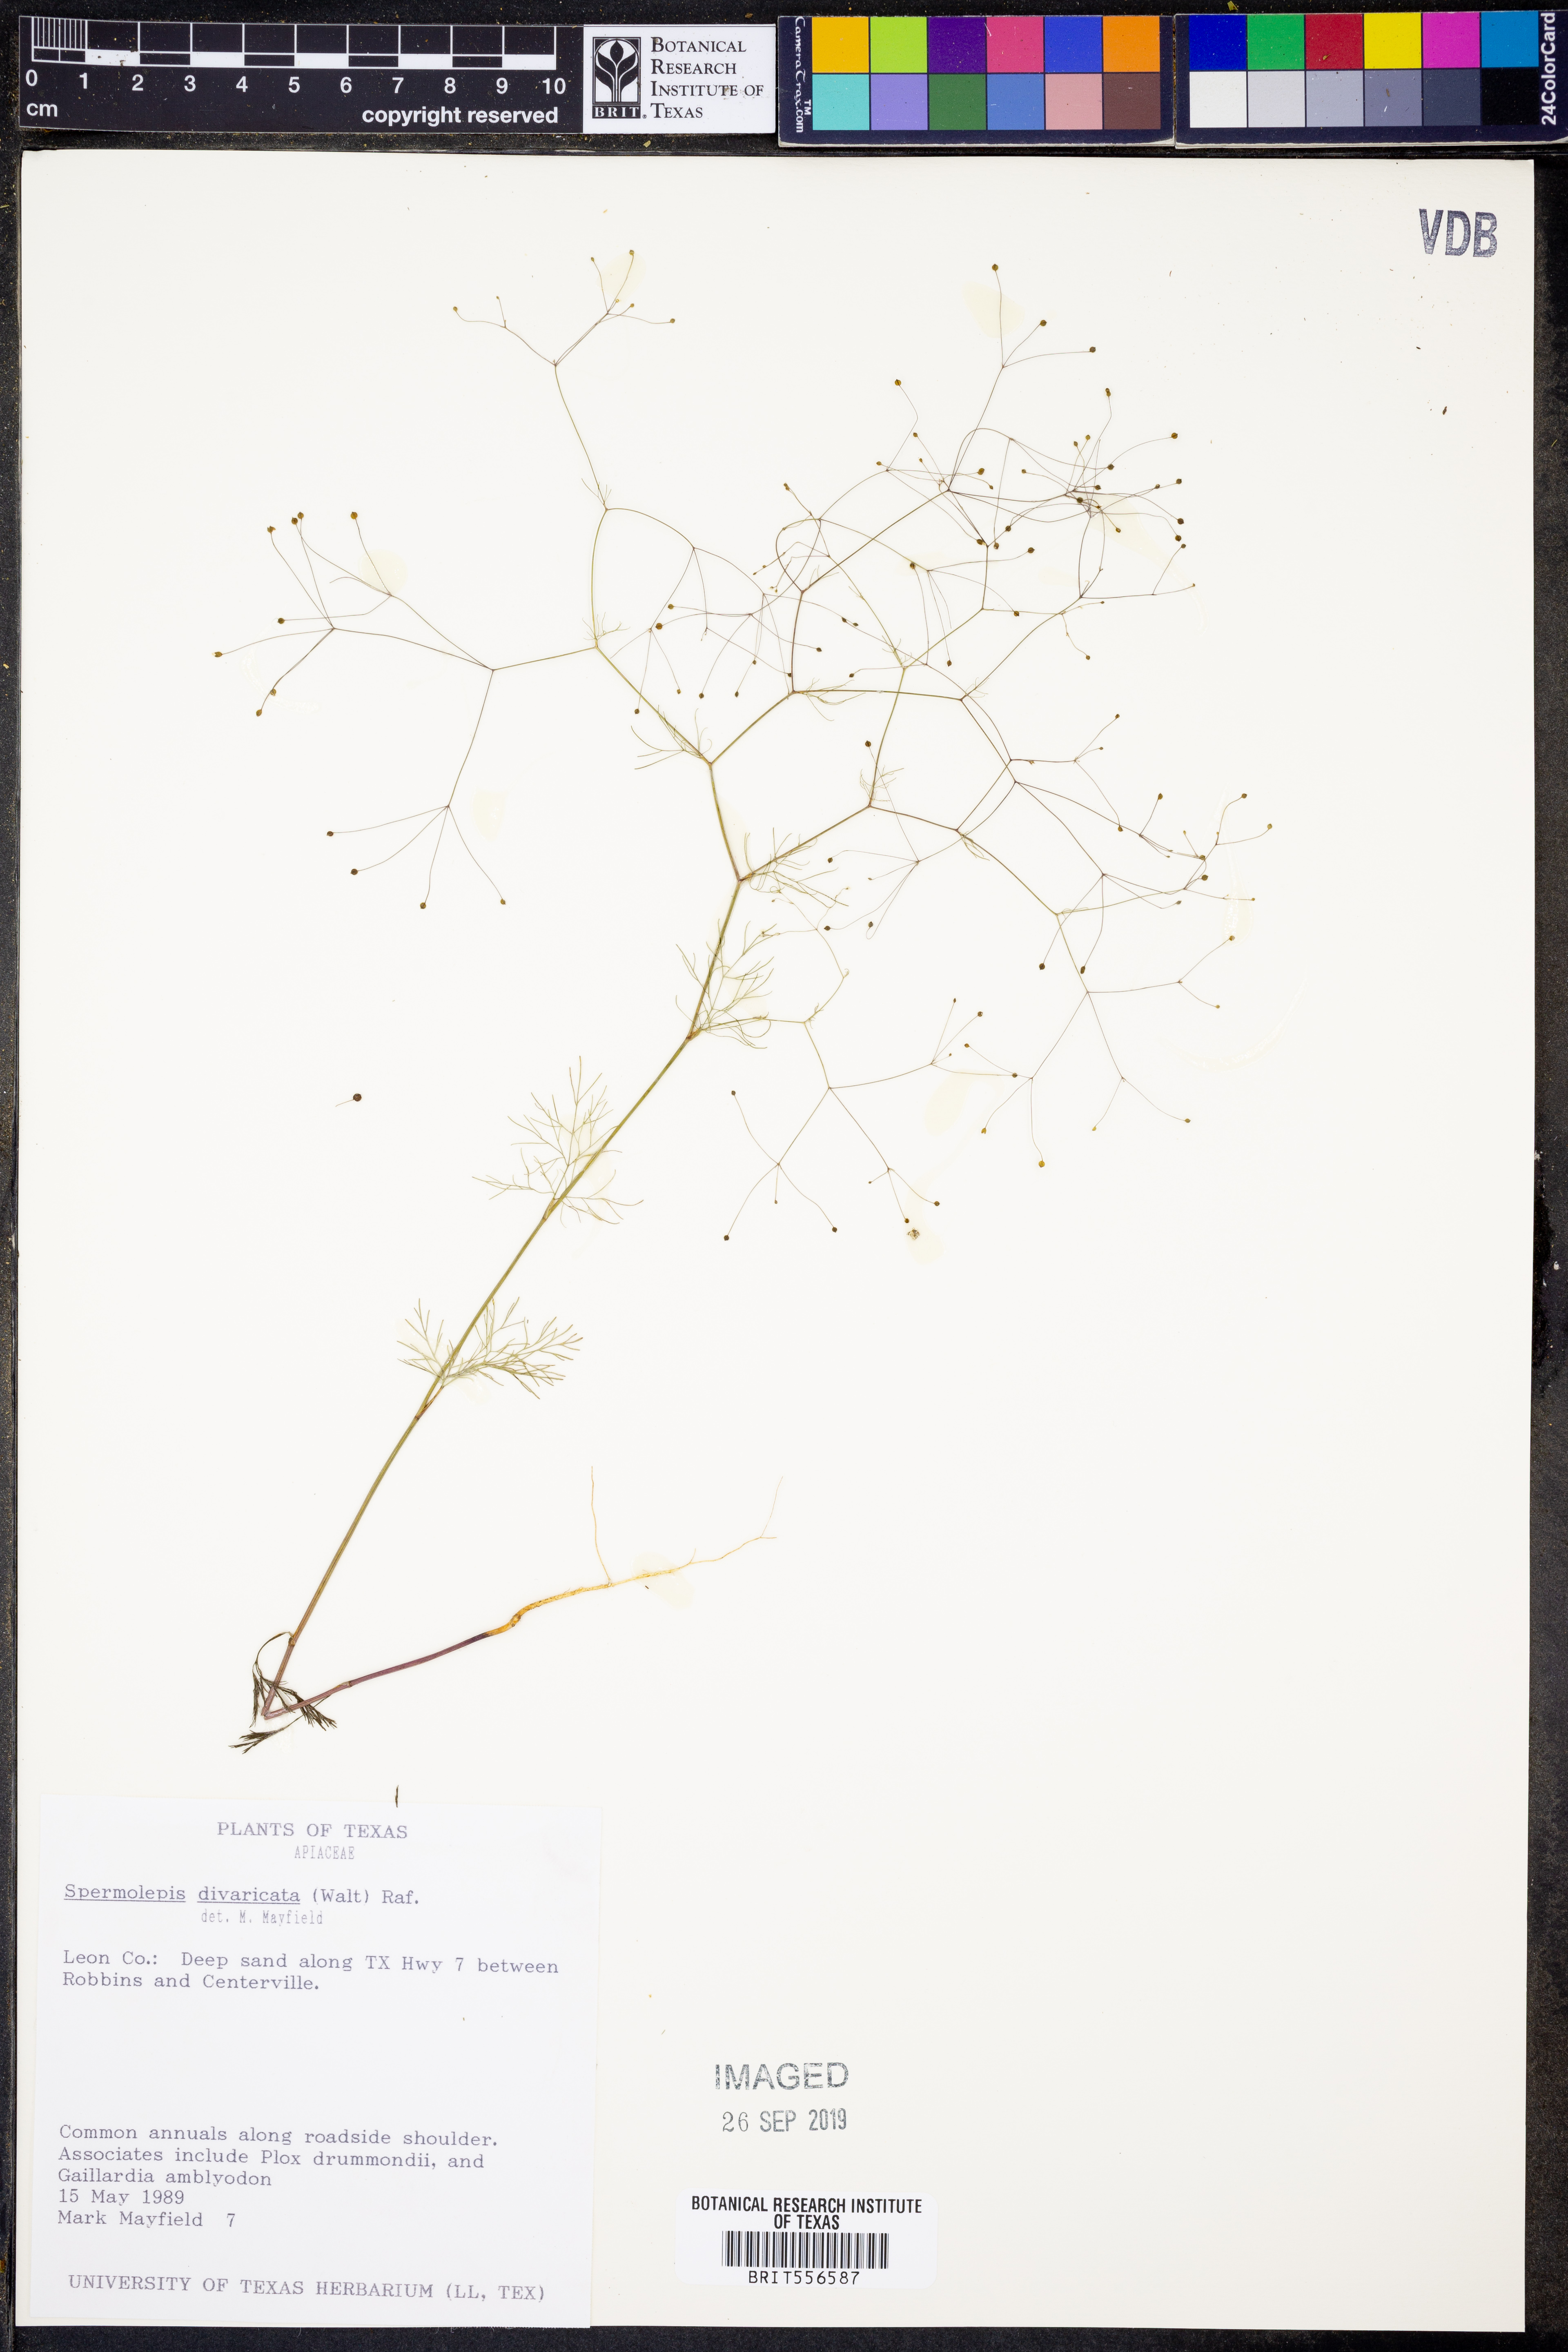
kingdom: Plantae
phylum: Tracheophyta
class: Magnoliopsida
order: Apiales
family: Apiaceae
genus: Spermolepis
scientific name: Spermolepis diffusa
